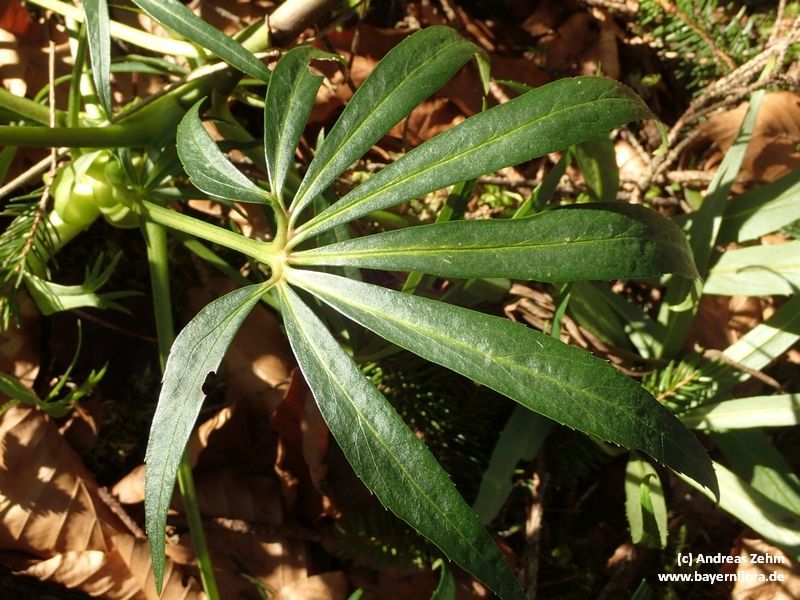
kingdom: Plantae
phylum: Tracheophyta
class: Magnoliopsida
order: Ranunculales
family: Ranunculaceae
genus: Helleborus
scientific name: Helleborus foetidus
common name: Stinking hellebore
